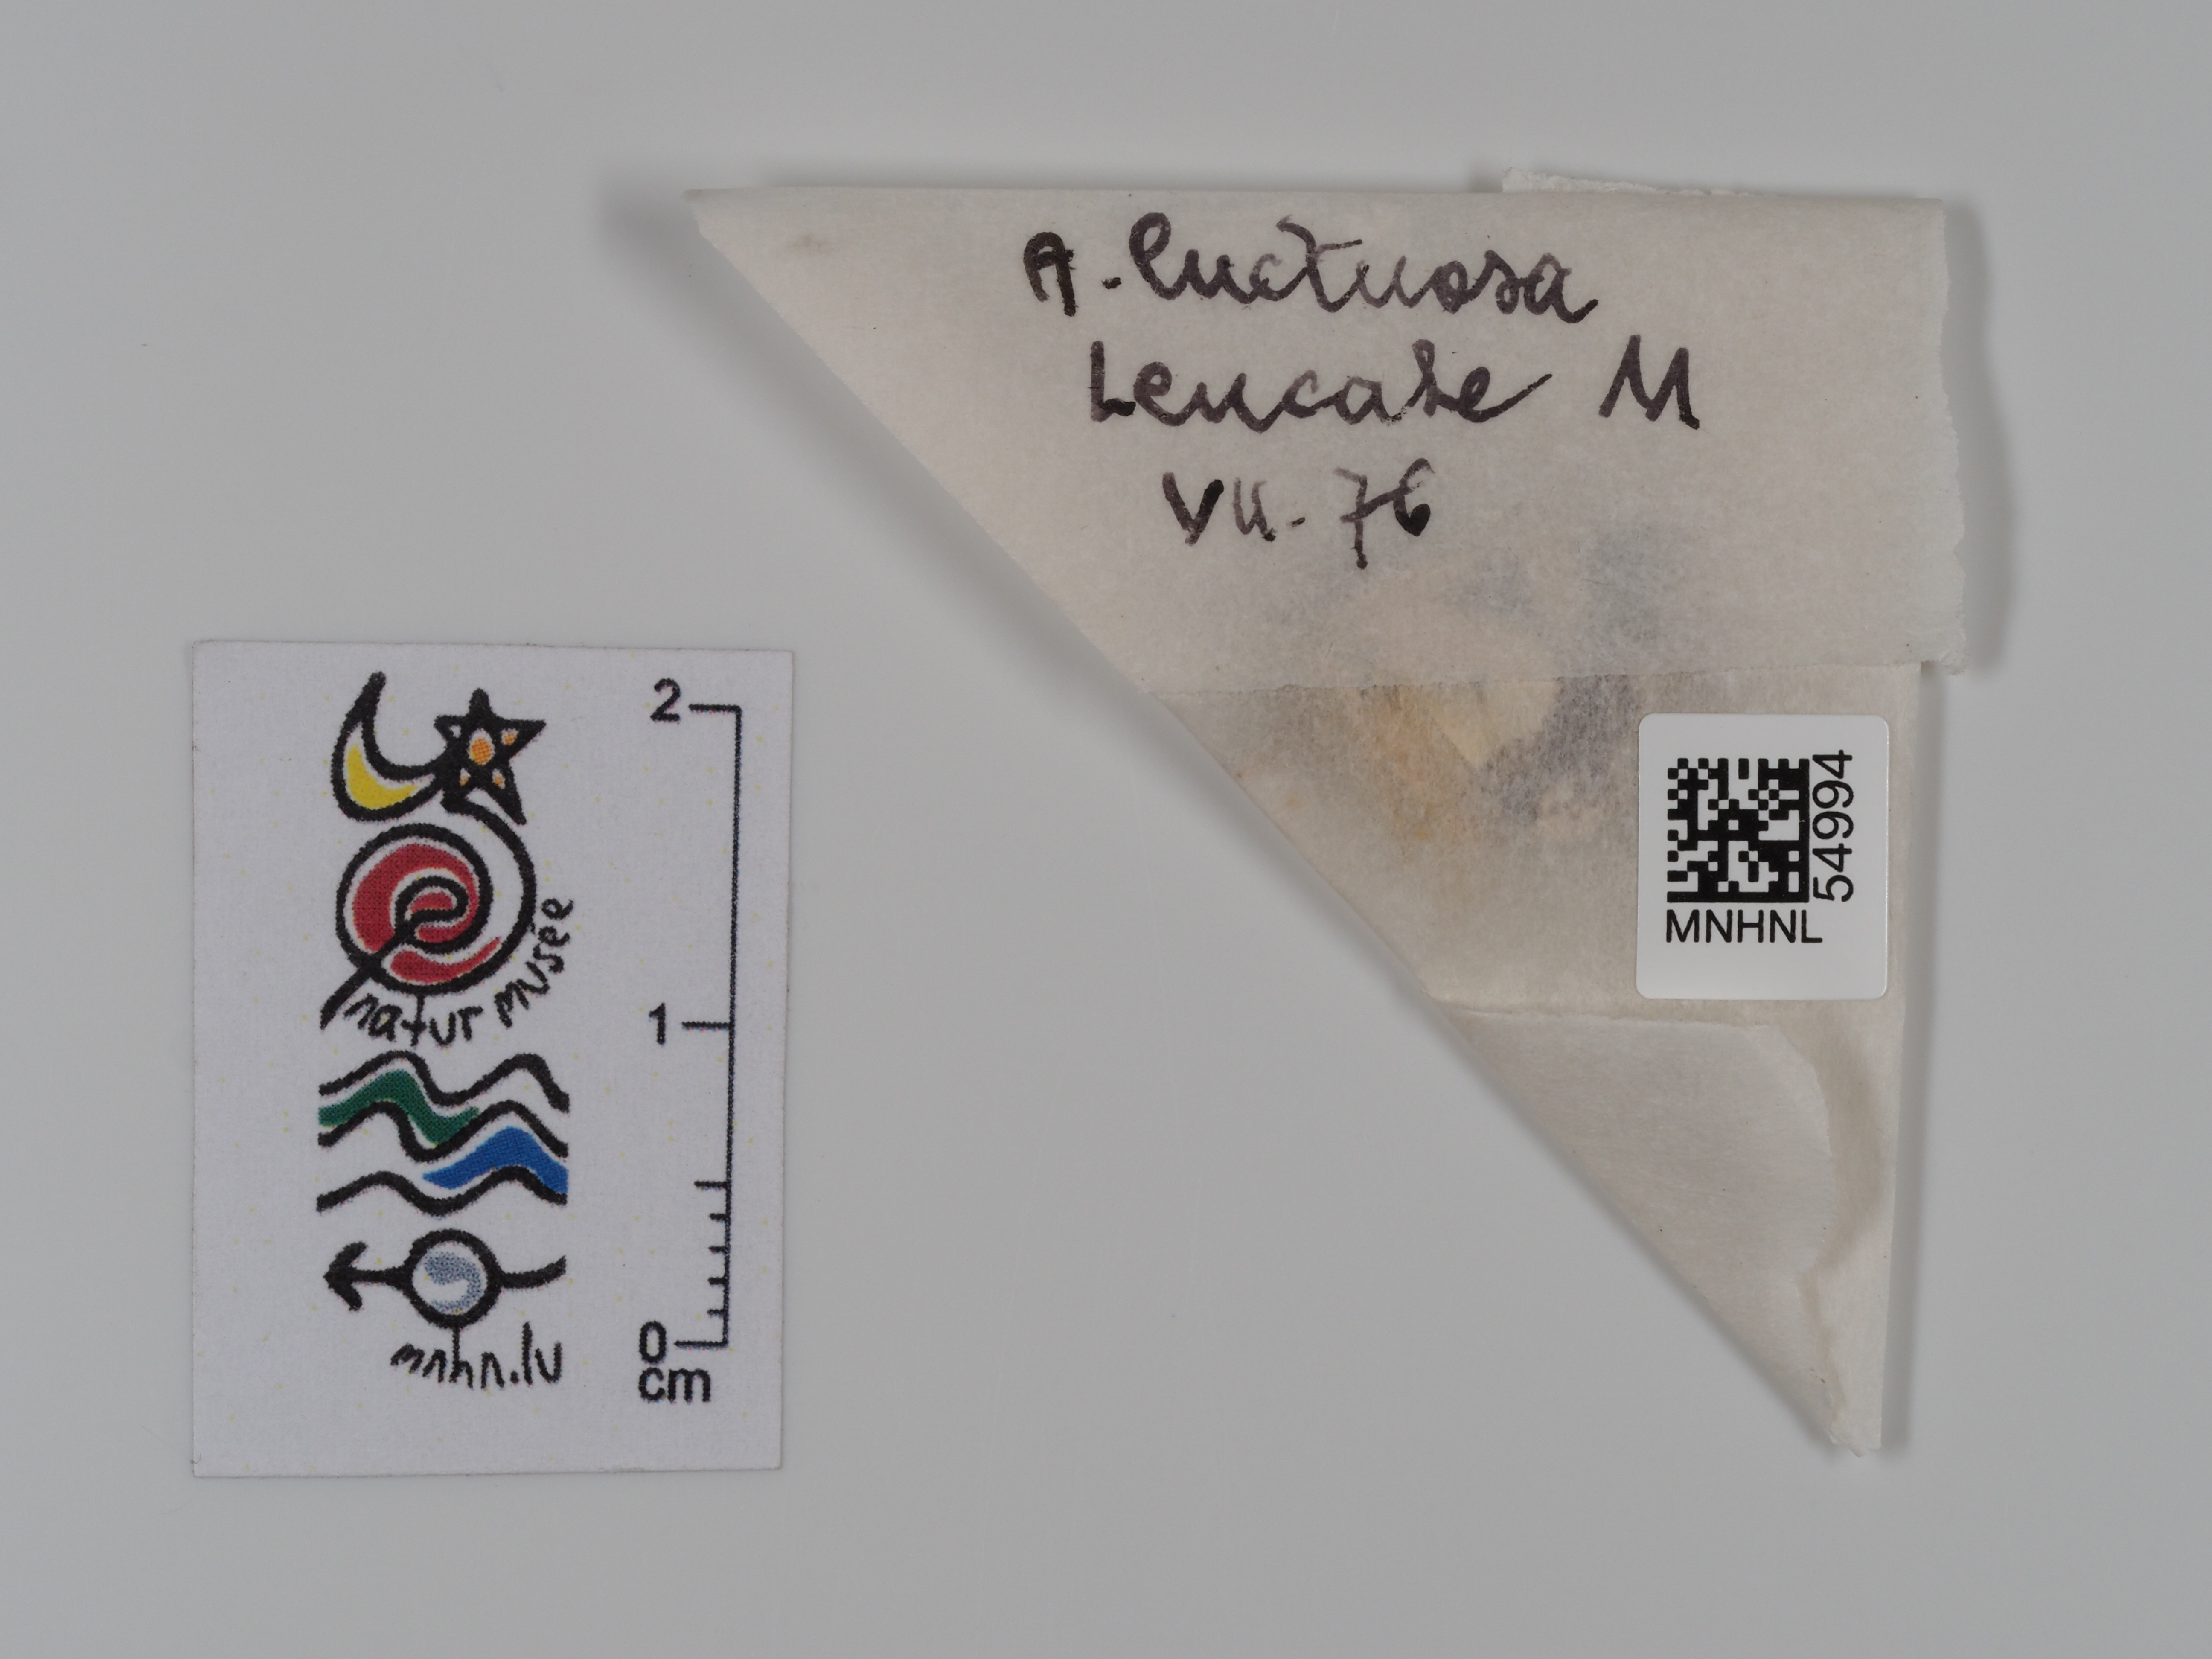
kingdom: Animalia
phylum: Arthropoda
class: Insecta
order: Lepidoptera
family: Erebidae
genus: Tyta
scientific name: Tyta luctuosa
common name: Four-spotted
